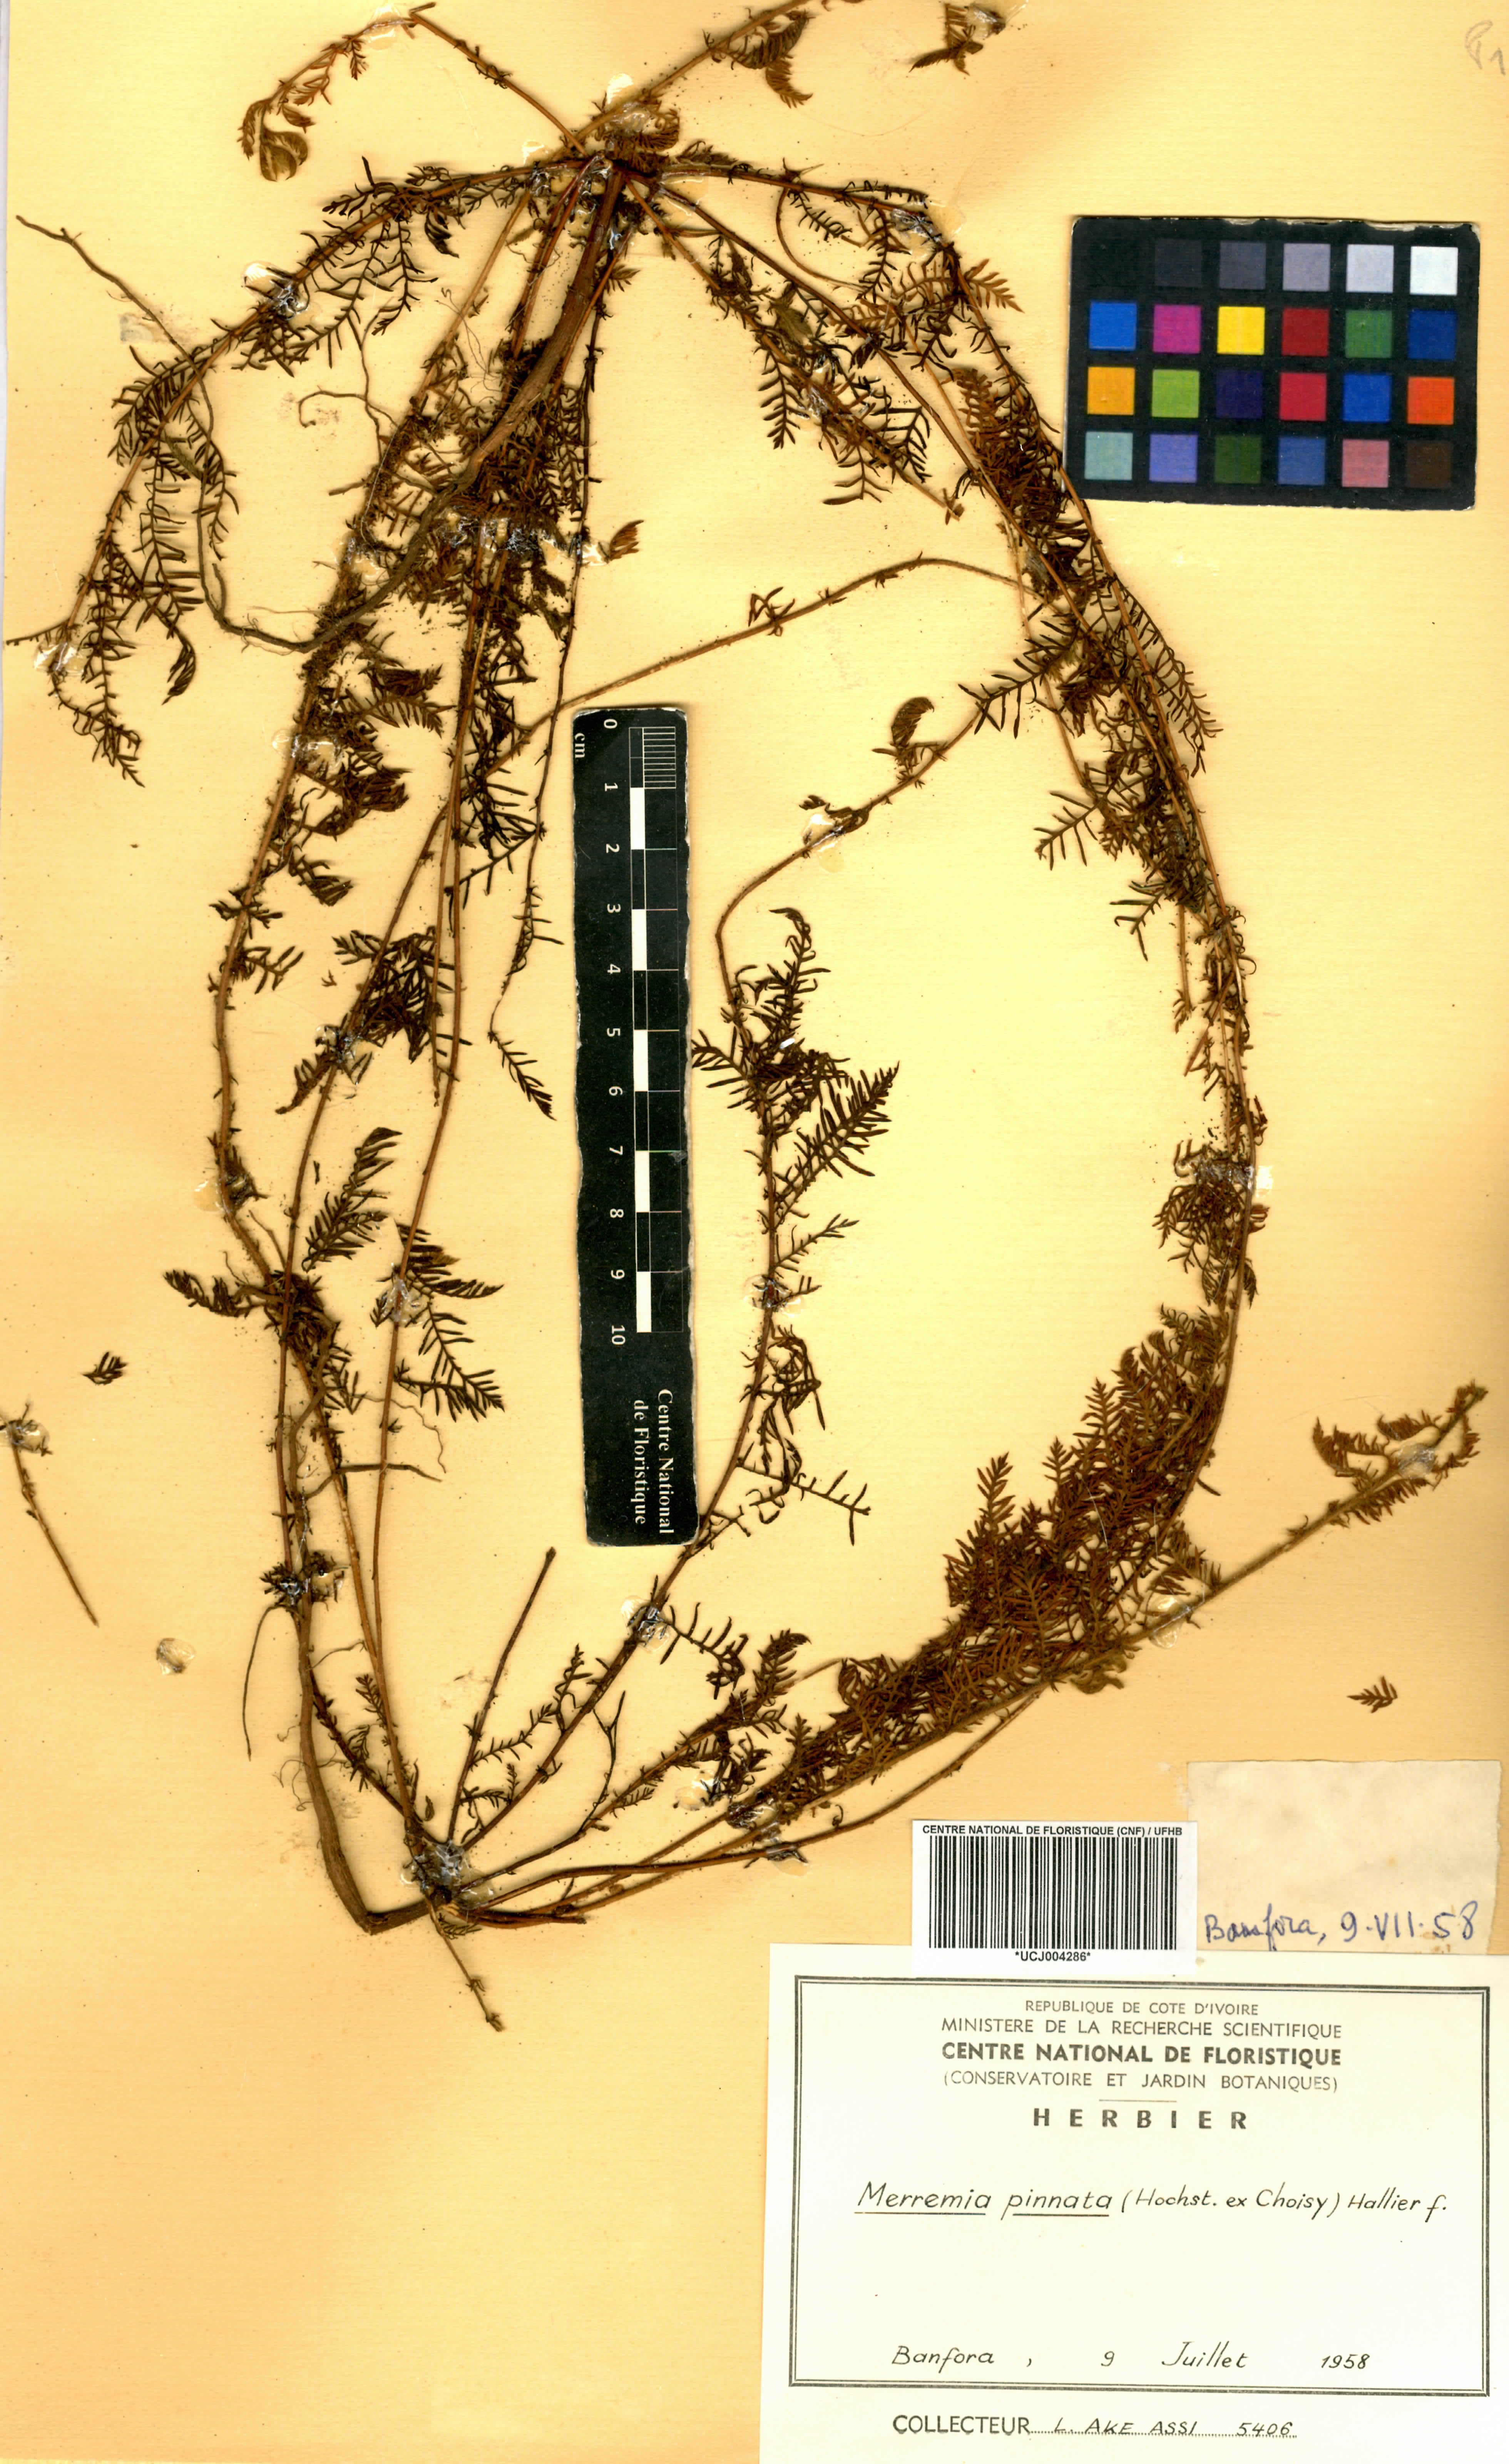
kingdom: Plantae
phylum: Tracheophyta
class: Magnoliopsida
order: Solanales
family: Convolvulaceae
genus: Xenostegia
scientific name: Xenostegia pinnata
